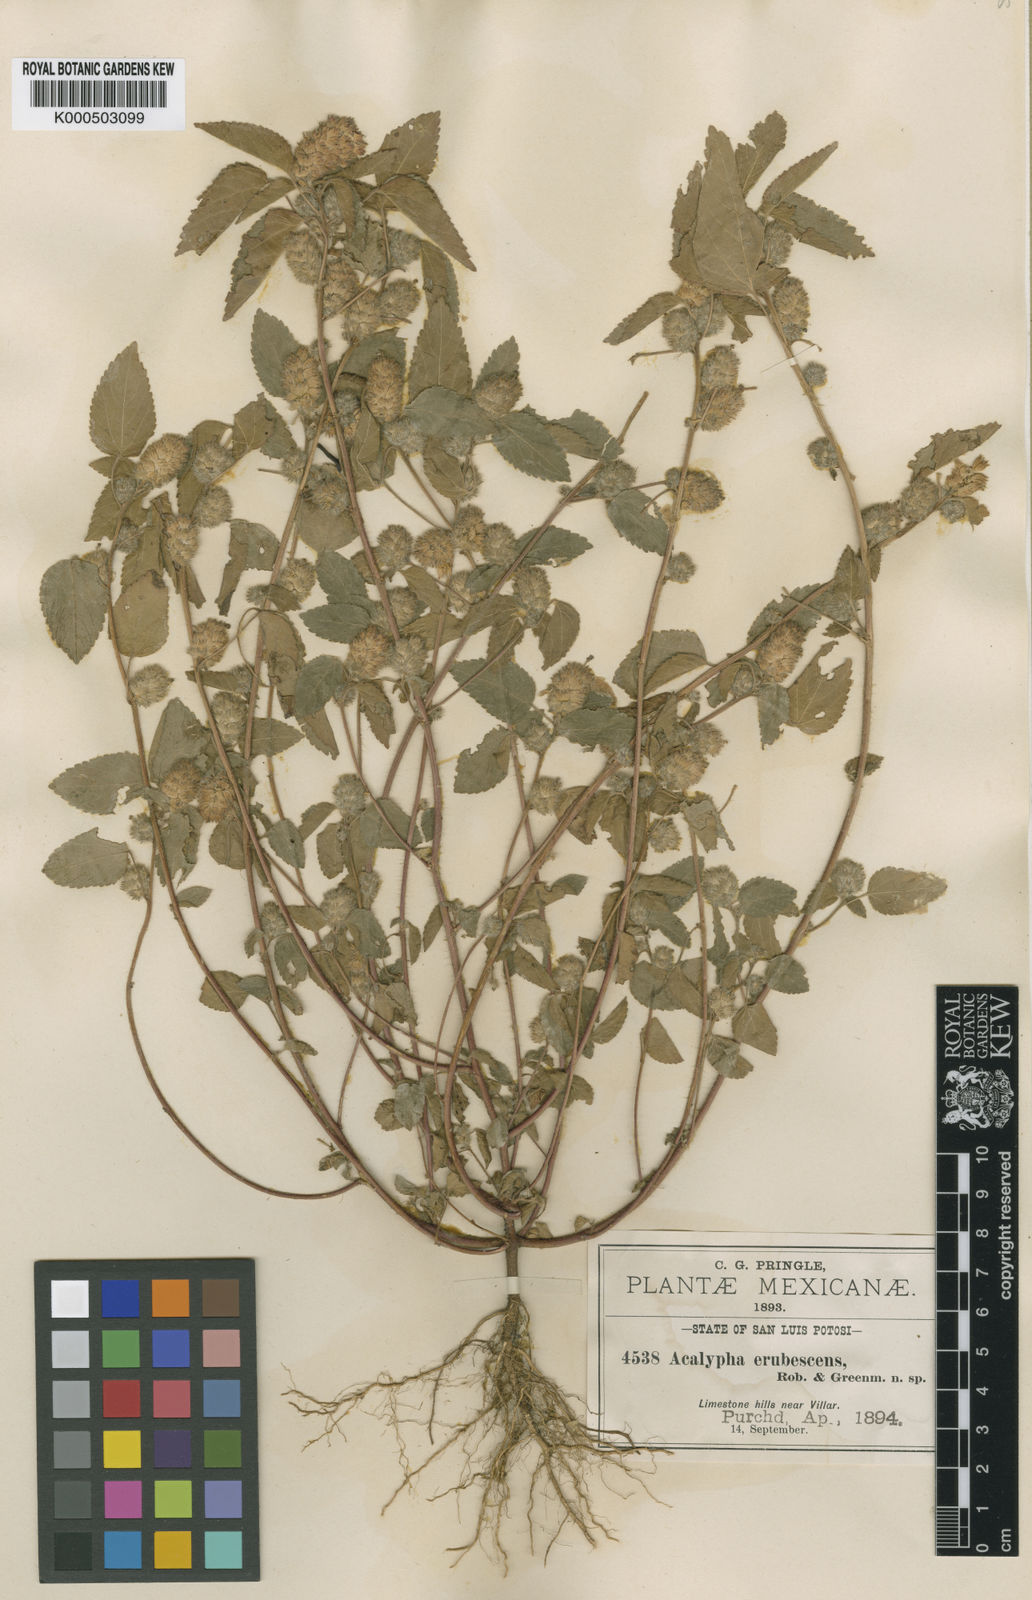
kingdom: Plantae
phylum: Tracheophyta
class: Magnoliopsida
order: Malpighiales
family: Euphorbiaceae
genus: Acalypha
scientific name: Acalypha poiretii
